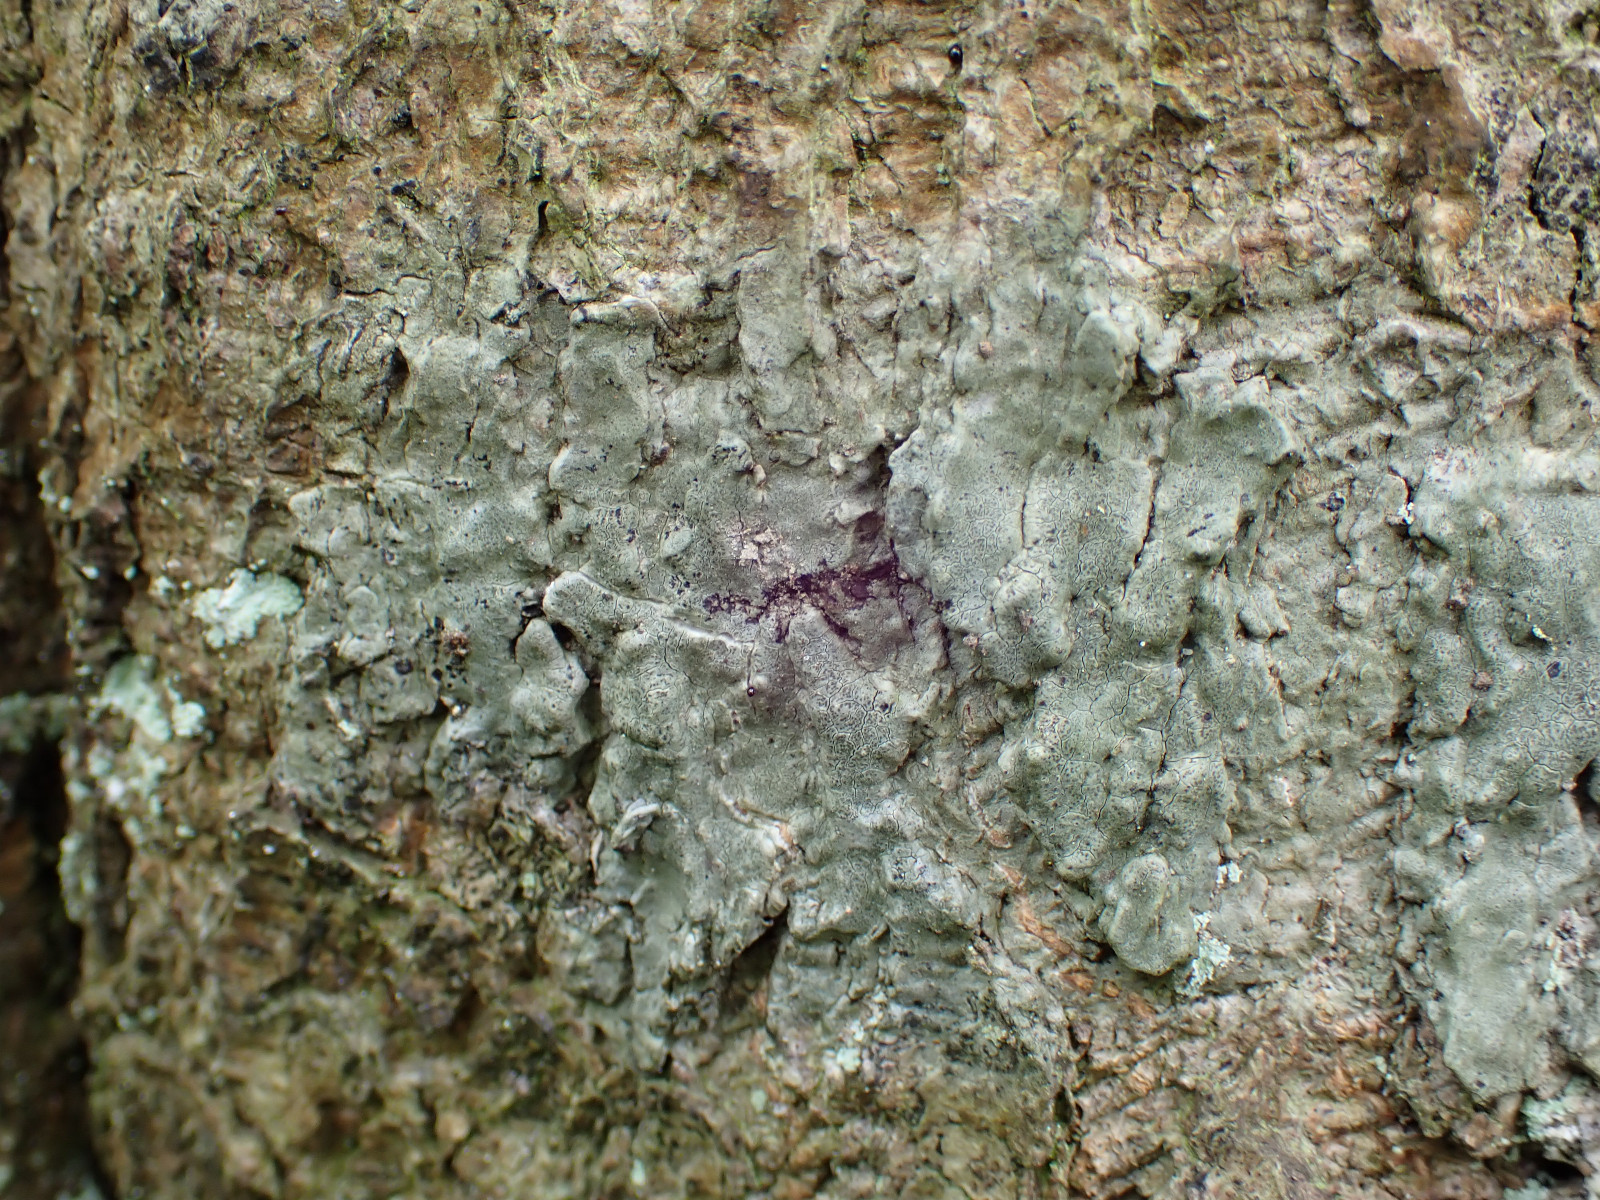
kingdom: Fungi
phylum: Ascomycota
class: Arthoniomycetes
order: Arthoniales
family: Roccellaceae
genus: Enterographa
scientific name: Enterographa crassa
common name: tyk prægelav
